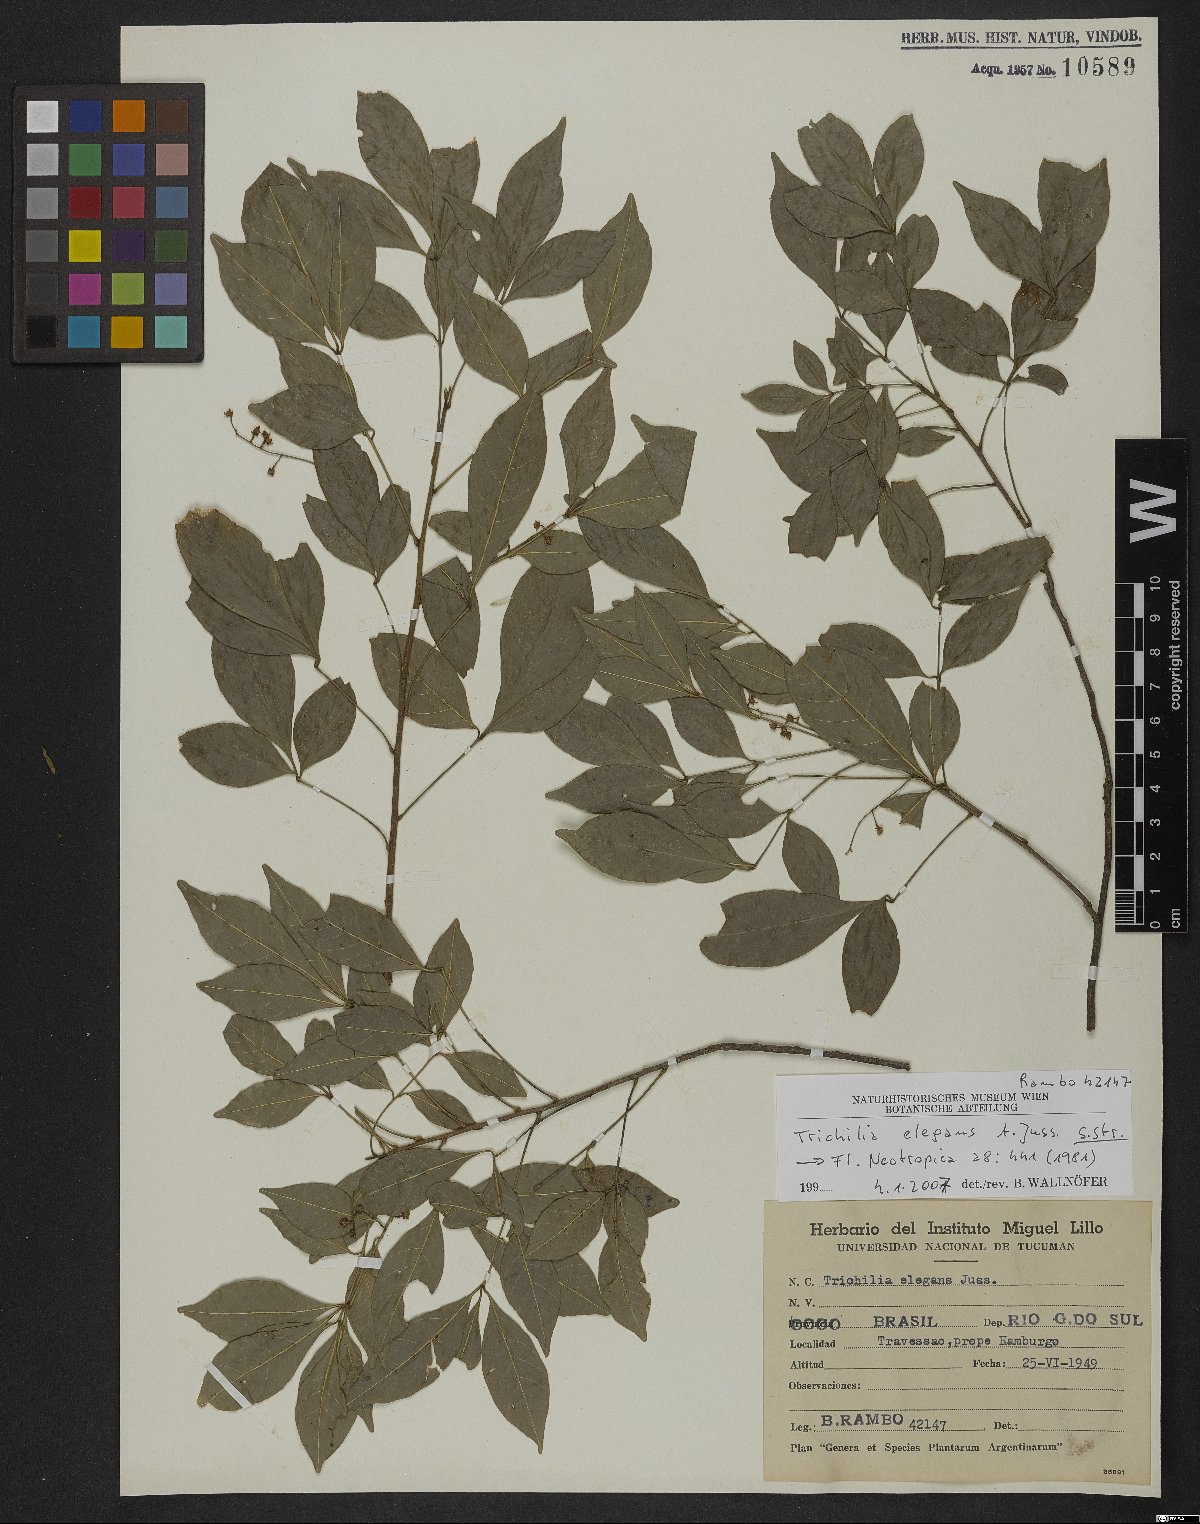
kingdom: Plantae
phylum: Tracheophyta
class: Magnoliopsida
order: Sapindales
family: Meliaceae
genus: Trichilia
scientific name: Trichilia elegans
